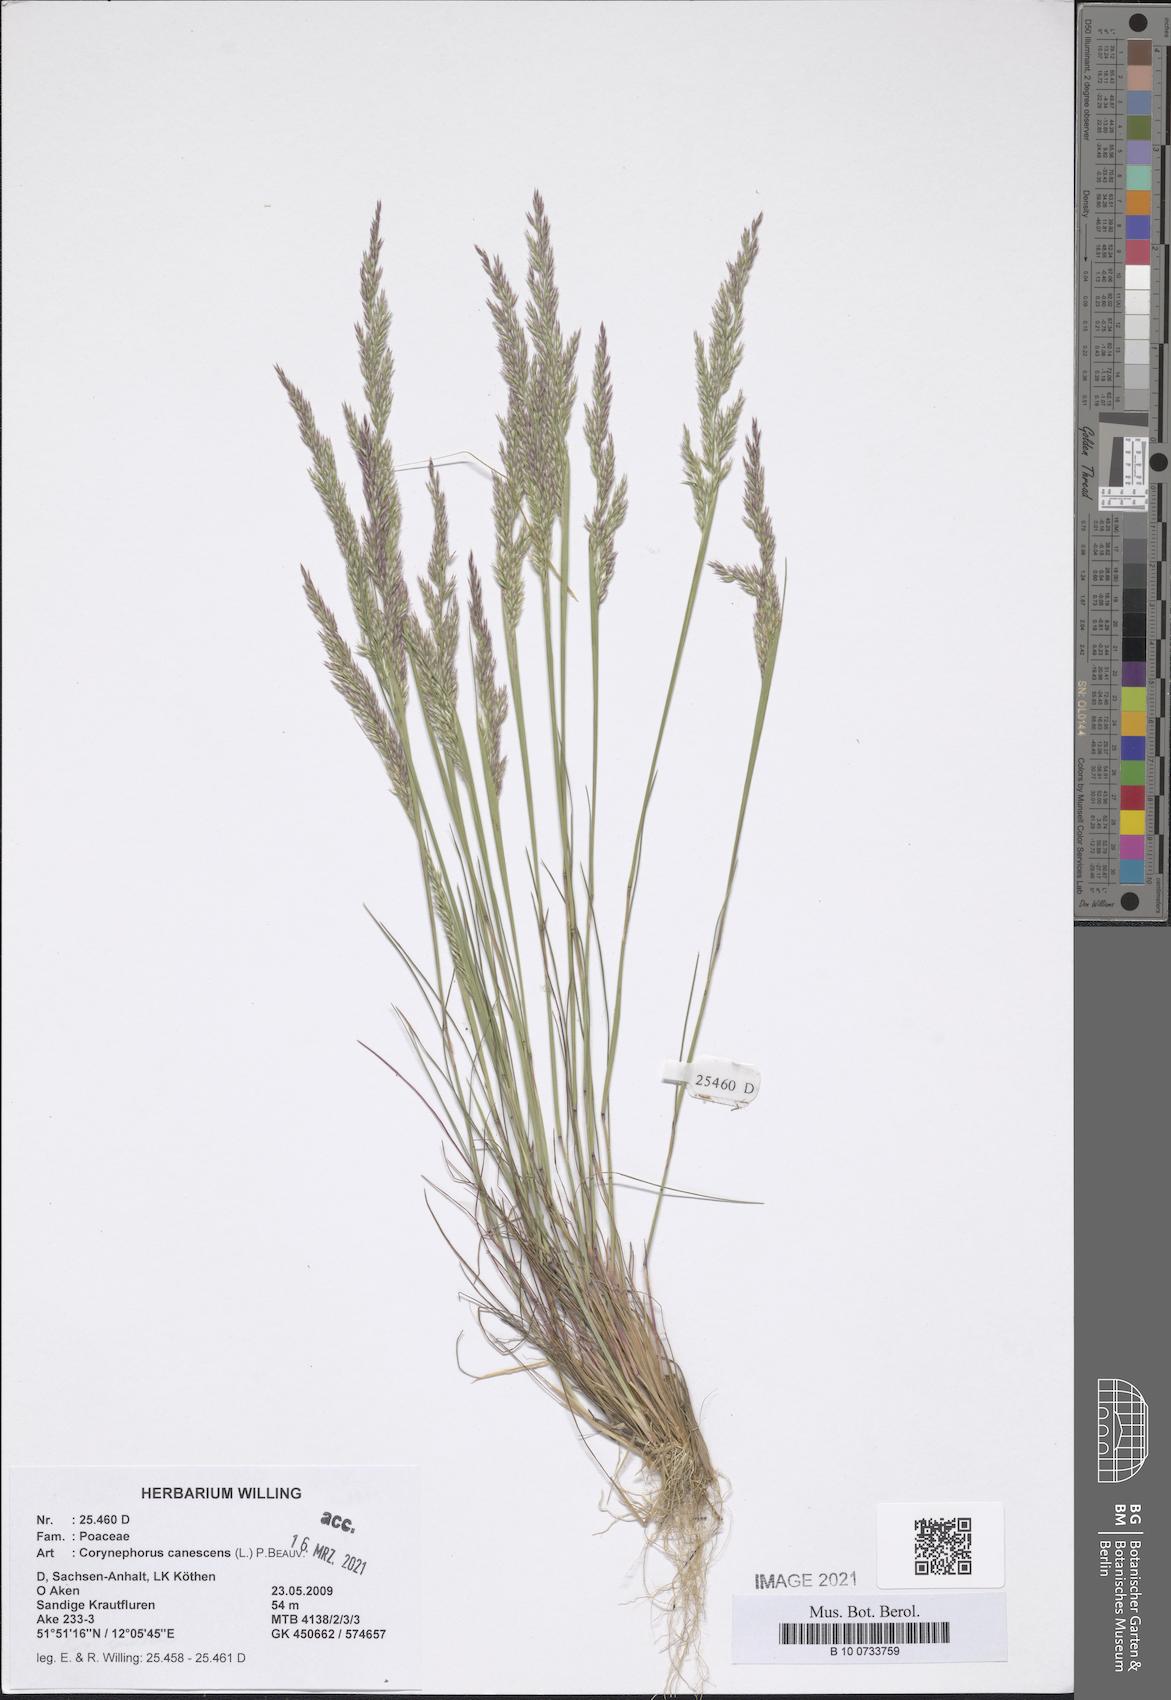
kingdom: Plantae
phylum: Tracheophyta
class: Liliopsida
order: Poales
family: Poaceae
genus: Corynephorus
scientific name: Corynephorus canescens
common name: Grey hair-grass
